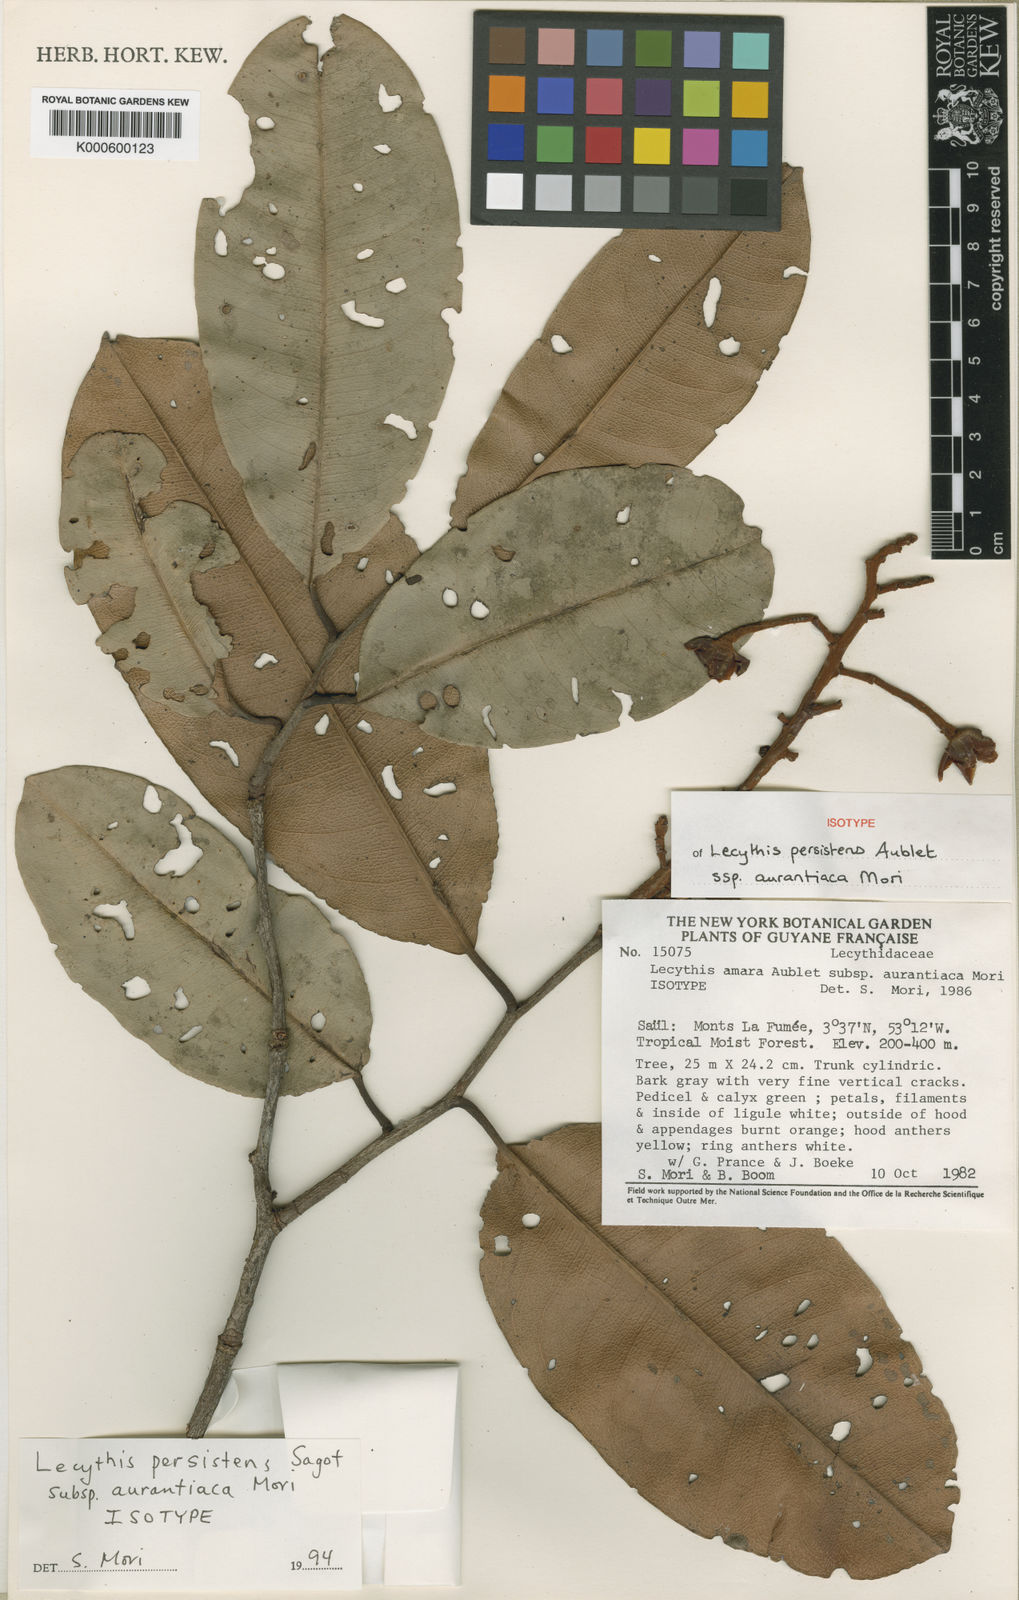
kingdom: Plantae
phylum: Tracheophyta
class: Magnoliopsida
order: Ericales
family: Lecythidaceae
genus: Lecythis
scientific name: Lecythis persistens
